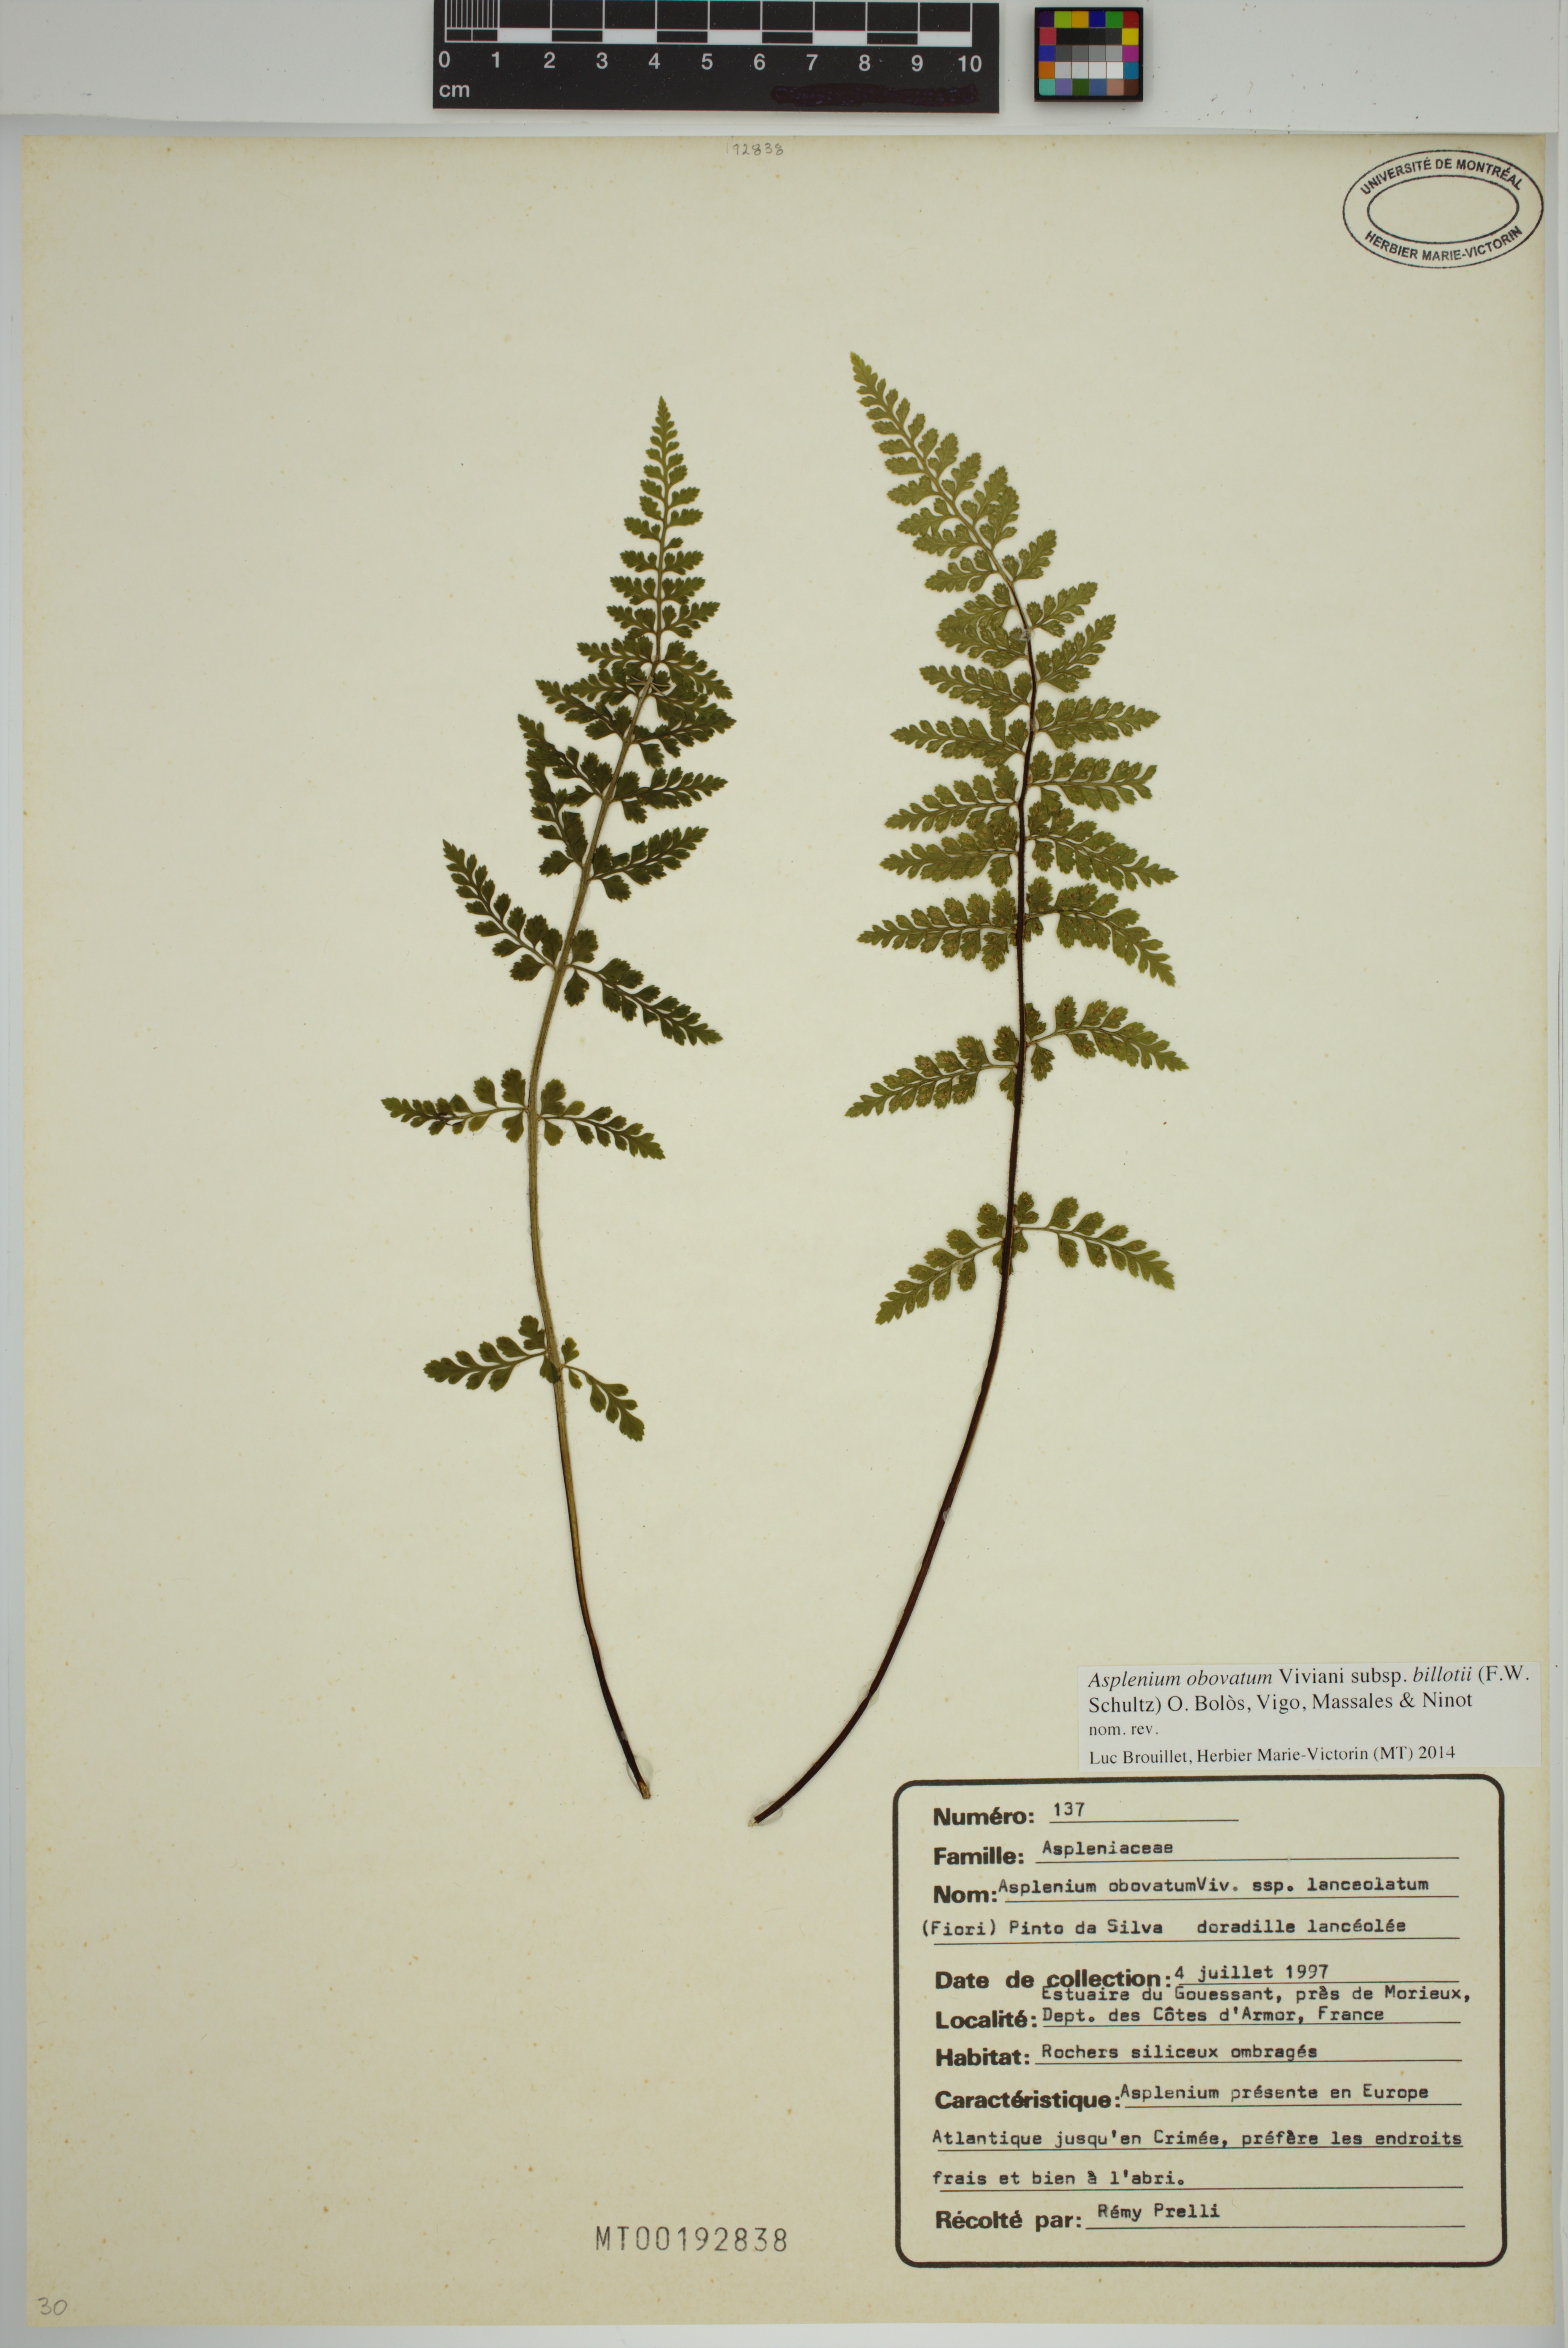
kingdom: Plantae
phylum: Tracheophyta
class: Polypodiopsida
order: Polypodiales
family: Aspleniaceae
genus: Asplenium
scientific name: Asplenium obovatum
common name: Lanceolate spleenwort
